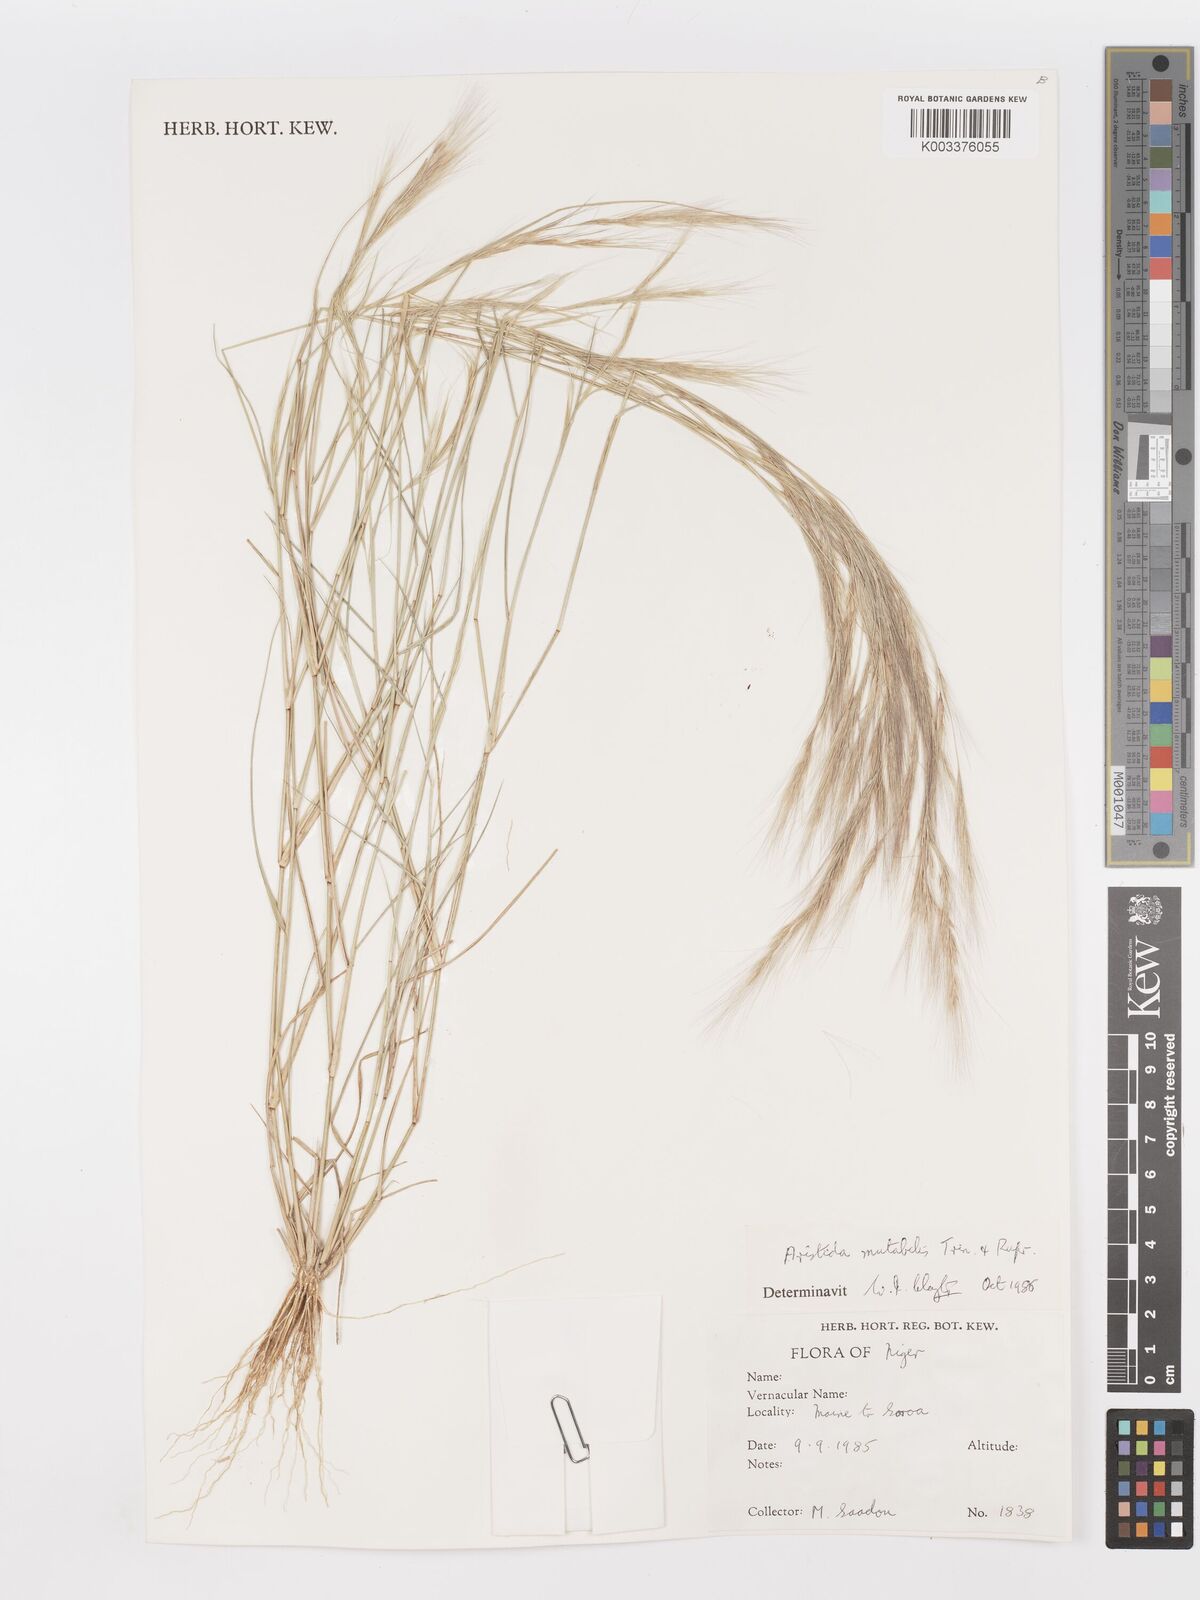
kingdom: Plantae
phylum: Tracheophyta
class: Liliopsida
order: Poales
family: Poaceae
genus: Aristida
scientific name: Aristida mutabilis
